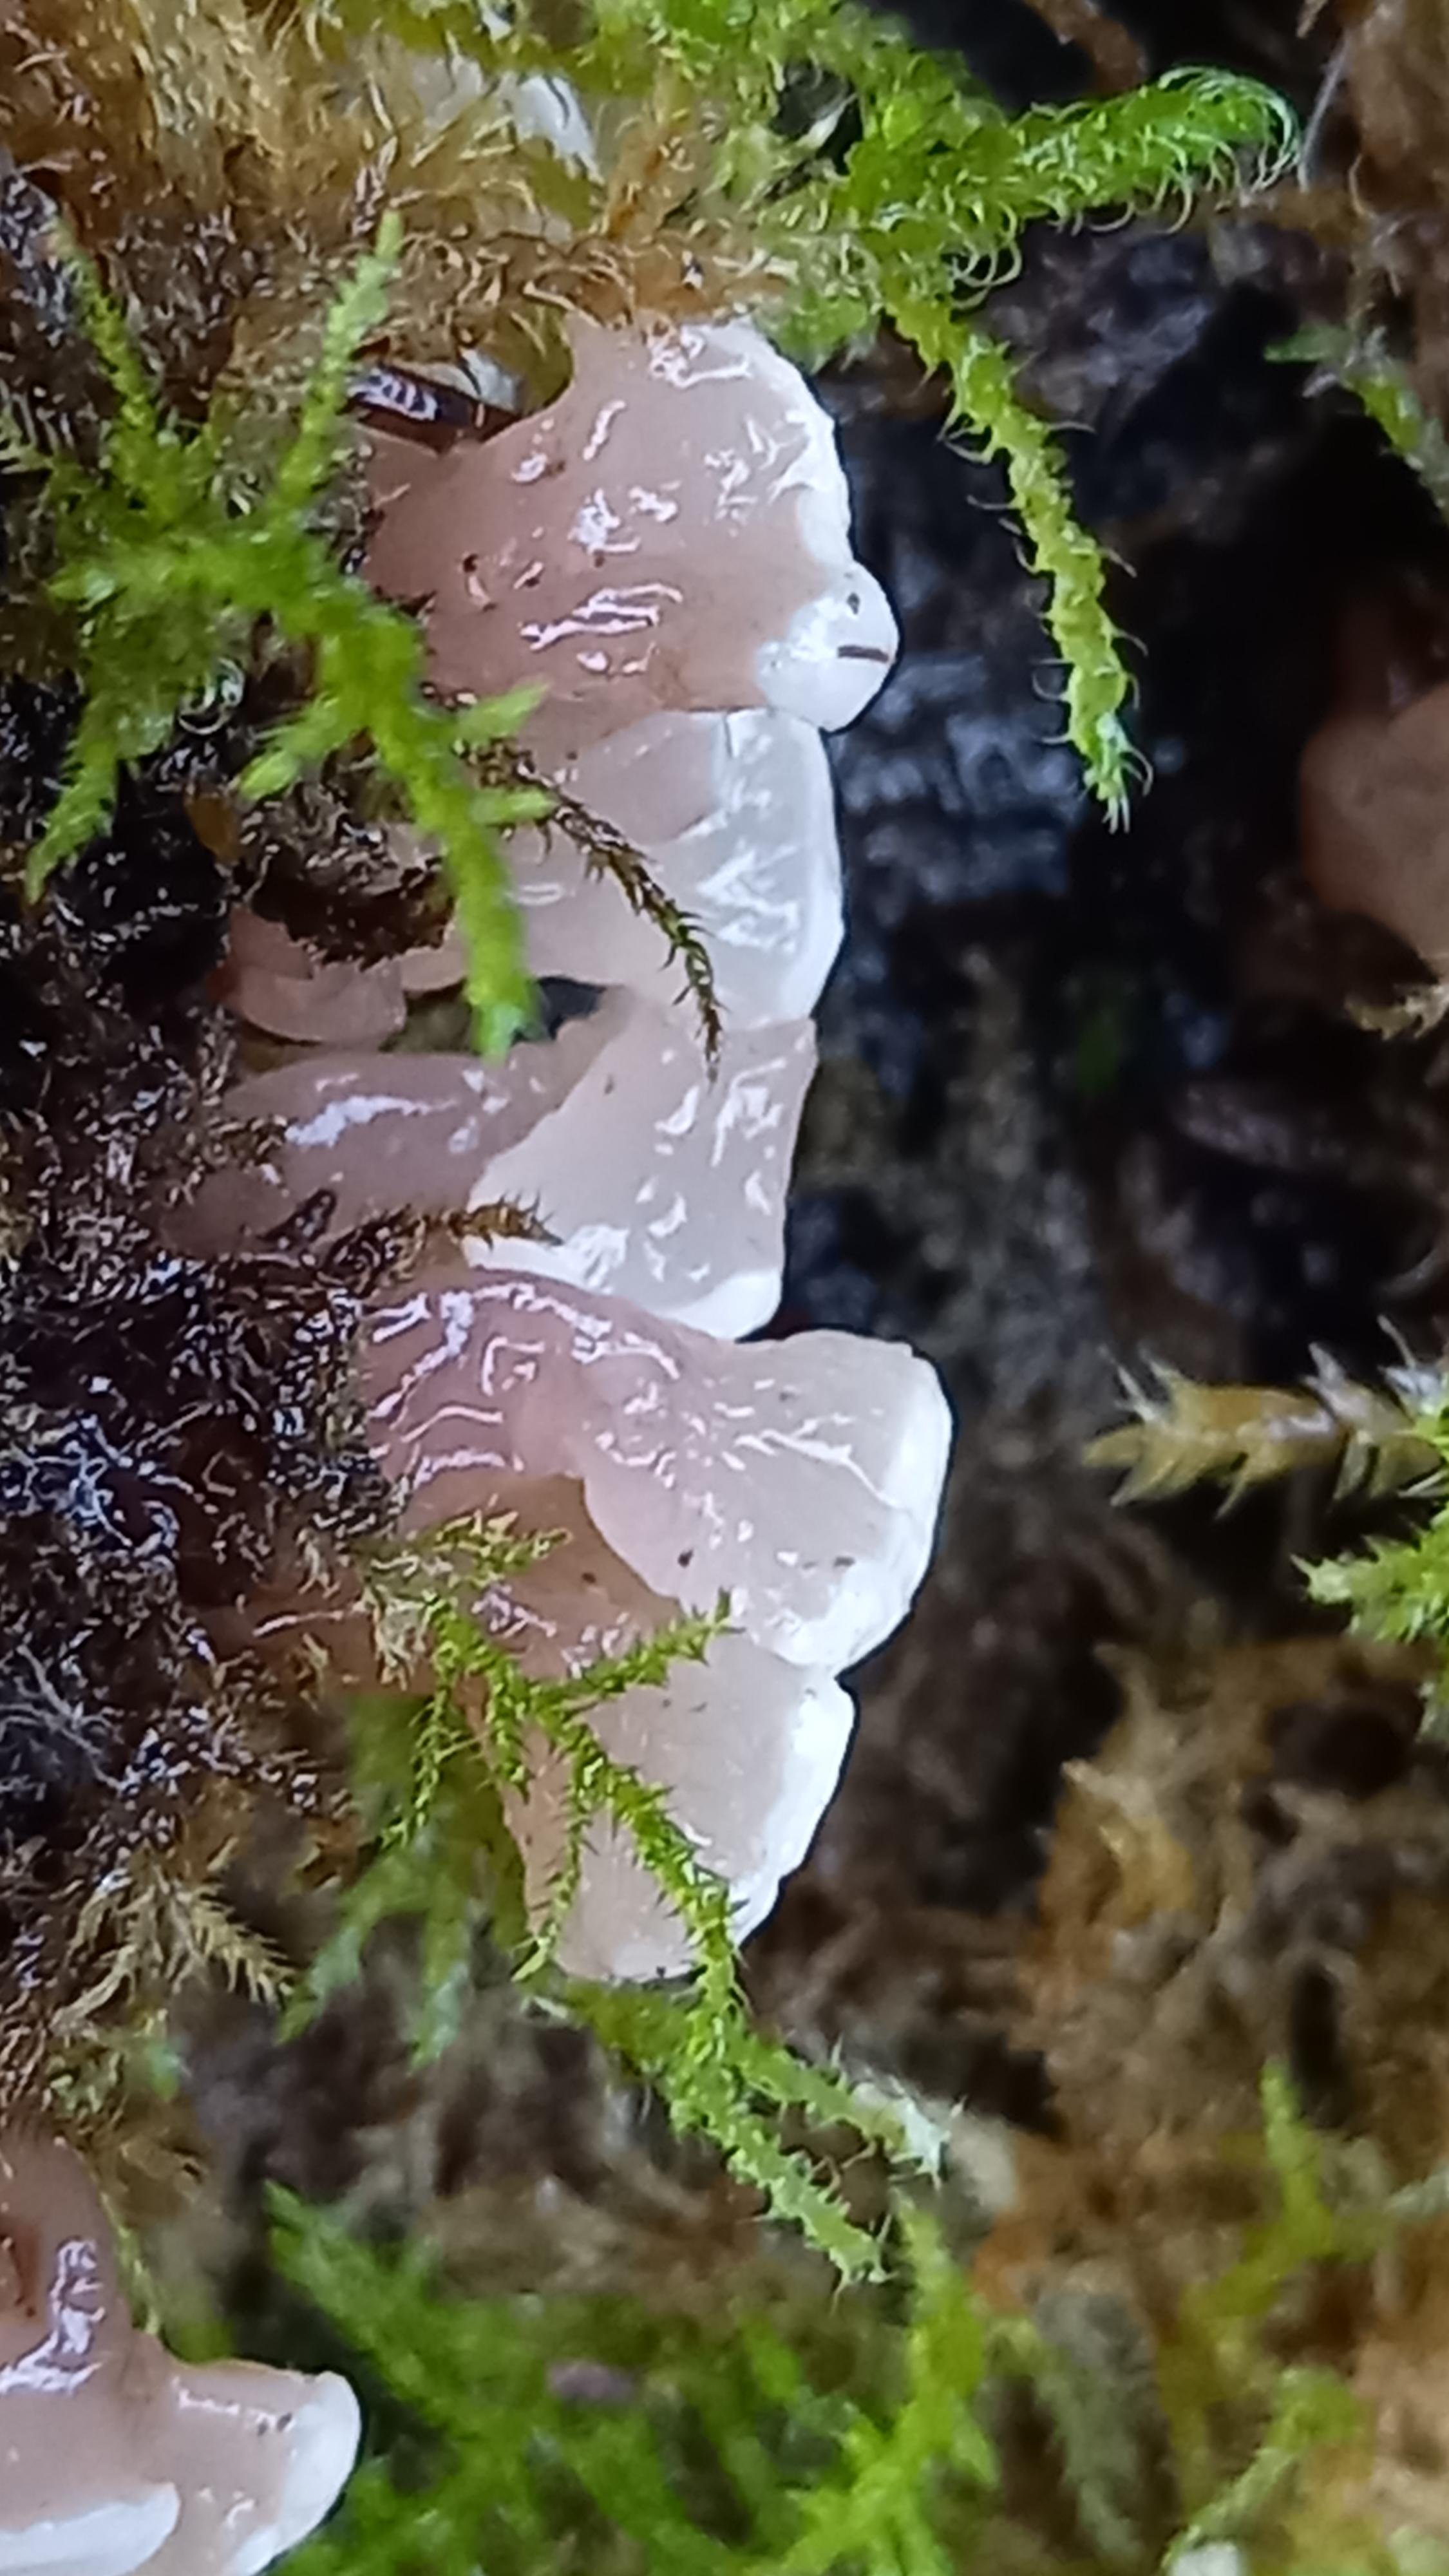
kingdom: Fungi
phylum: Ascomycota
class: Leotiomycetes
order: Helotiales
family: Gelatinodiscaceae
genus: Ascocoryne
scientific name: Ascocoryne
